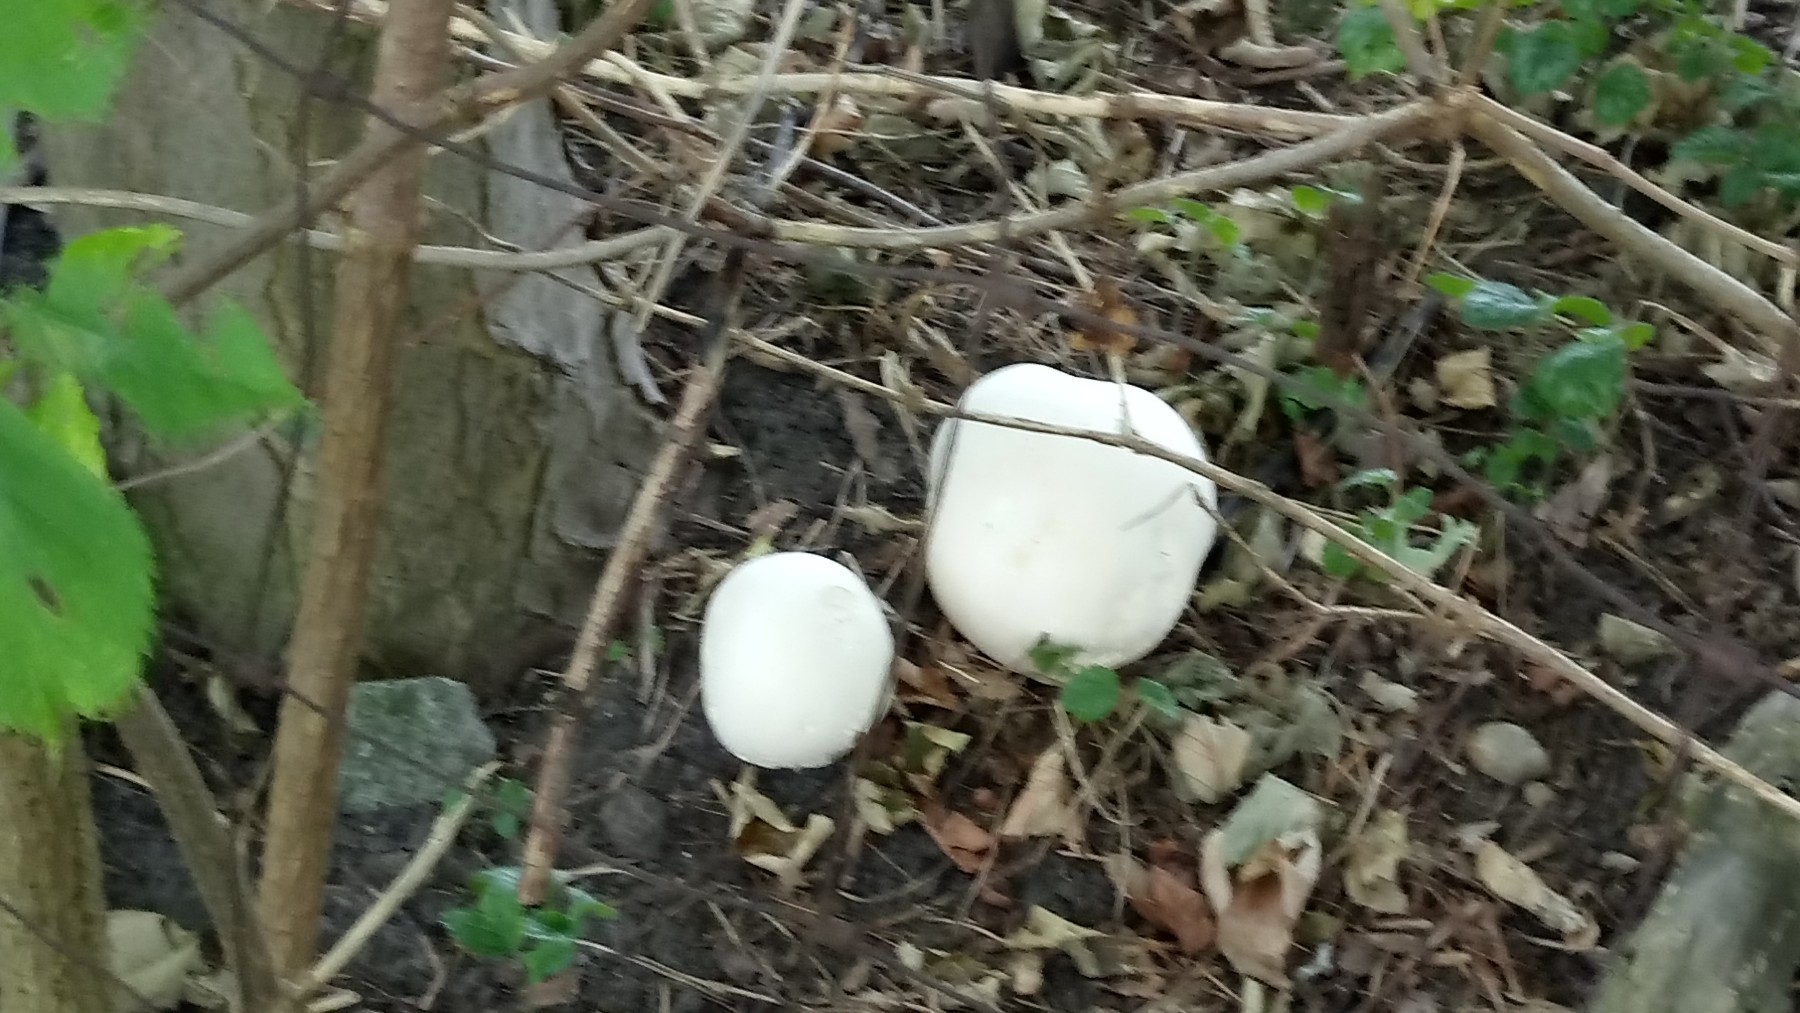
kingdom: Fungi
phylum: Basidiomycota
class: Agaricomycetes
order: Agaricales
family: Lycoperdaceae
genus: Calvatia
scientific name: Calvatia gigantea
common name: kæmpestøvbold
